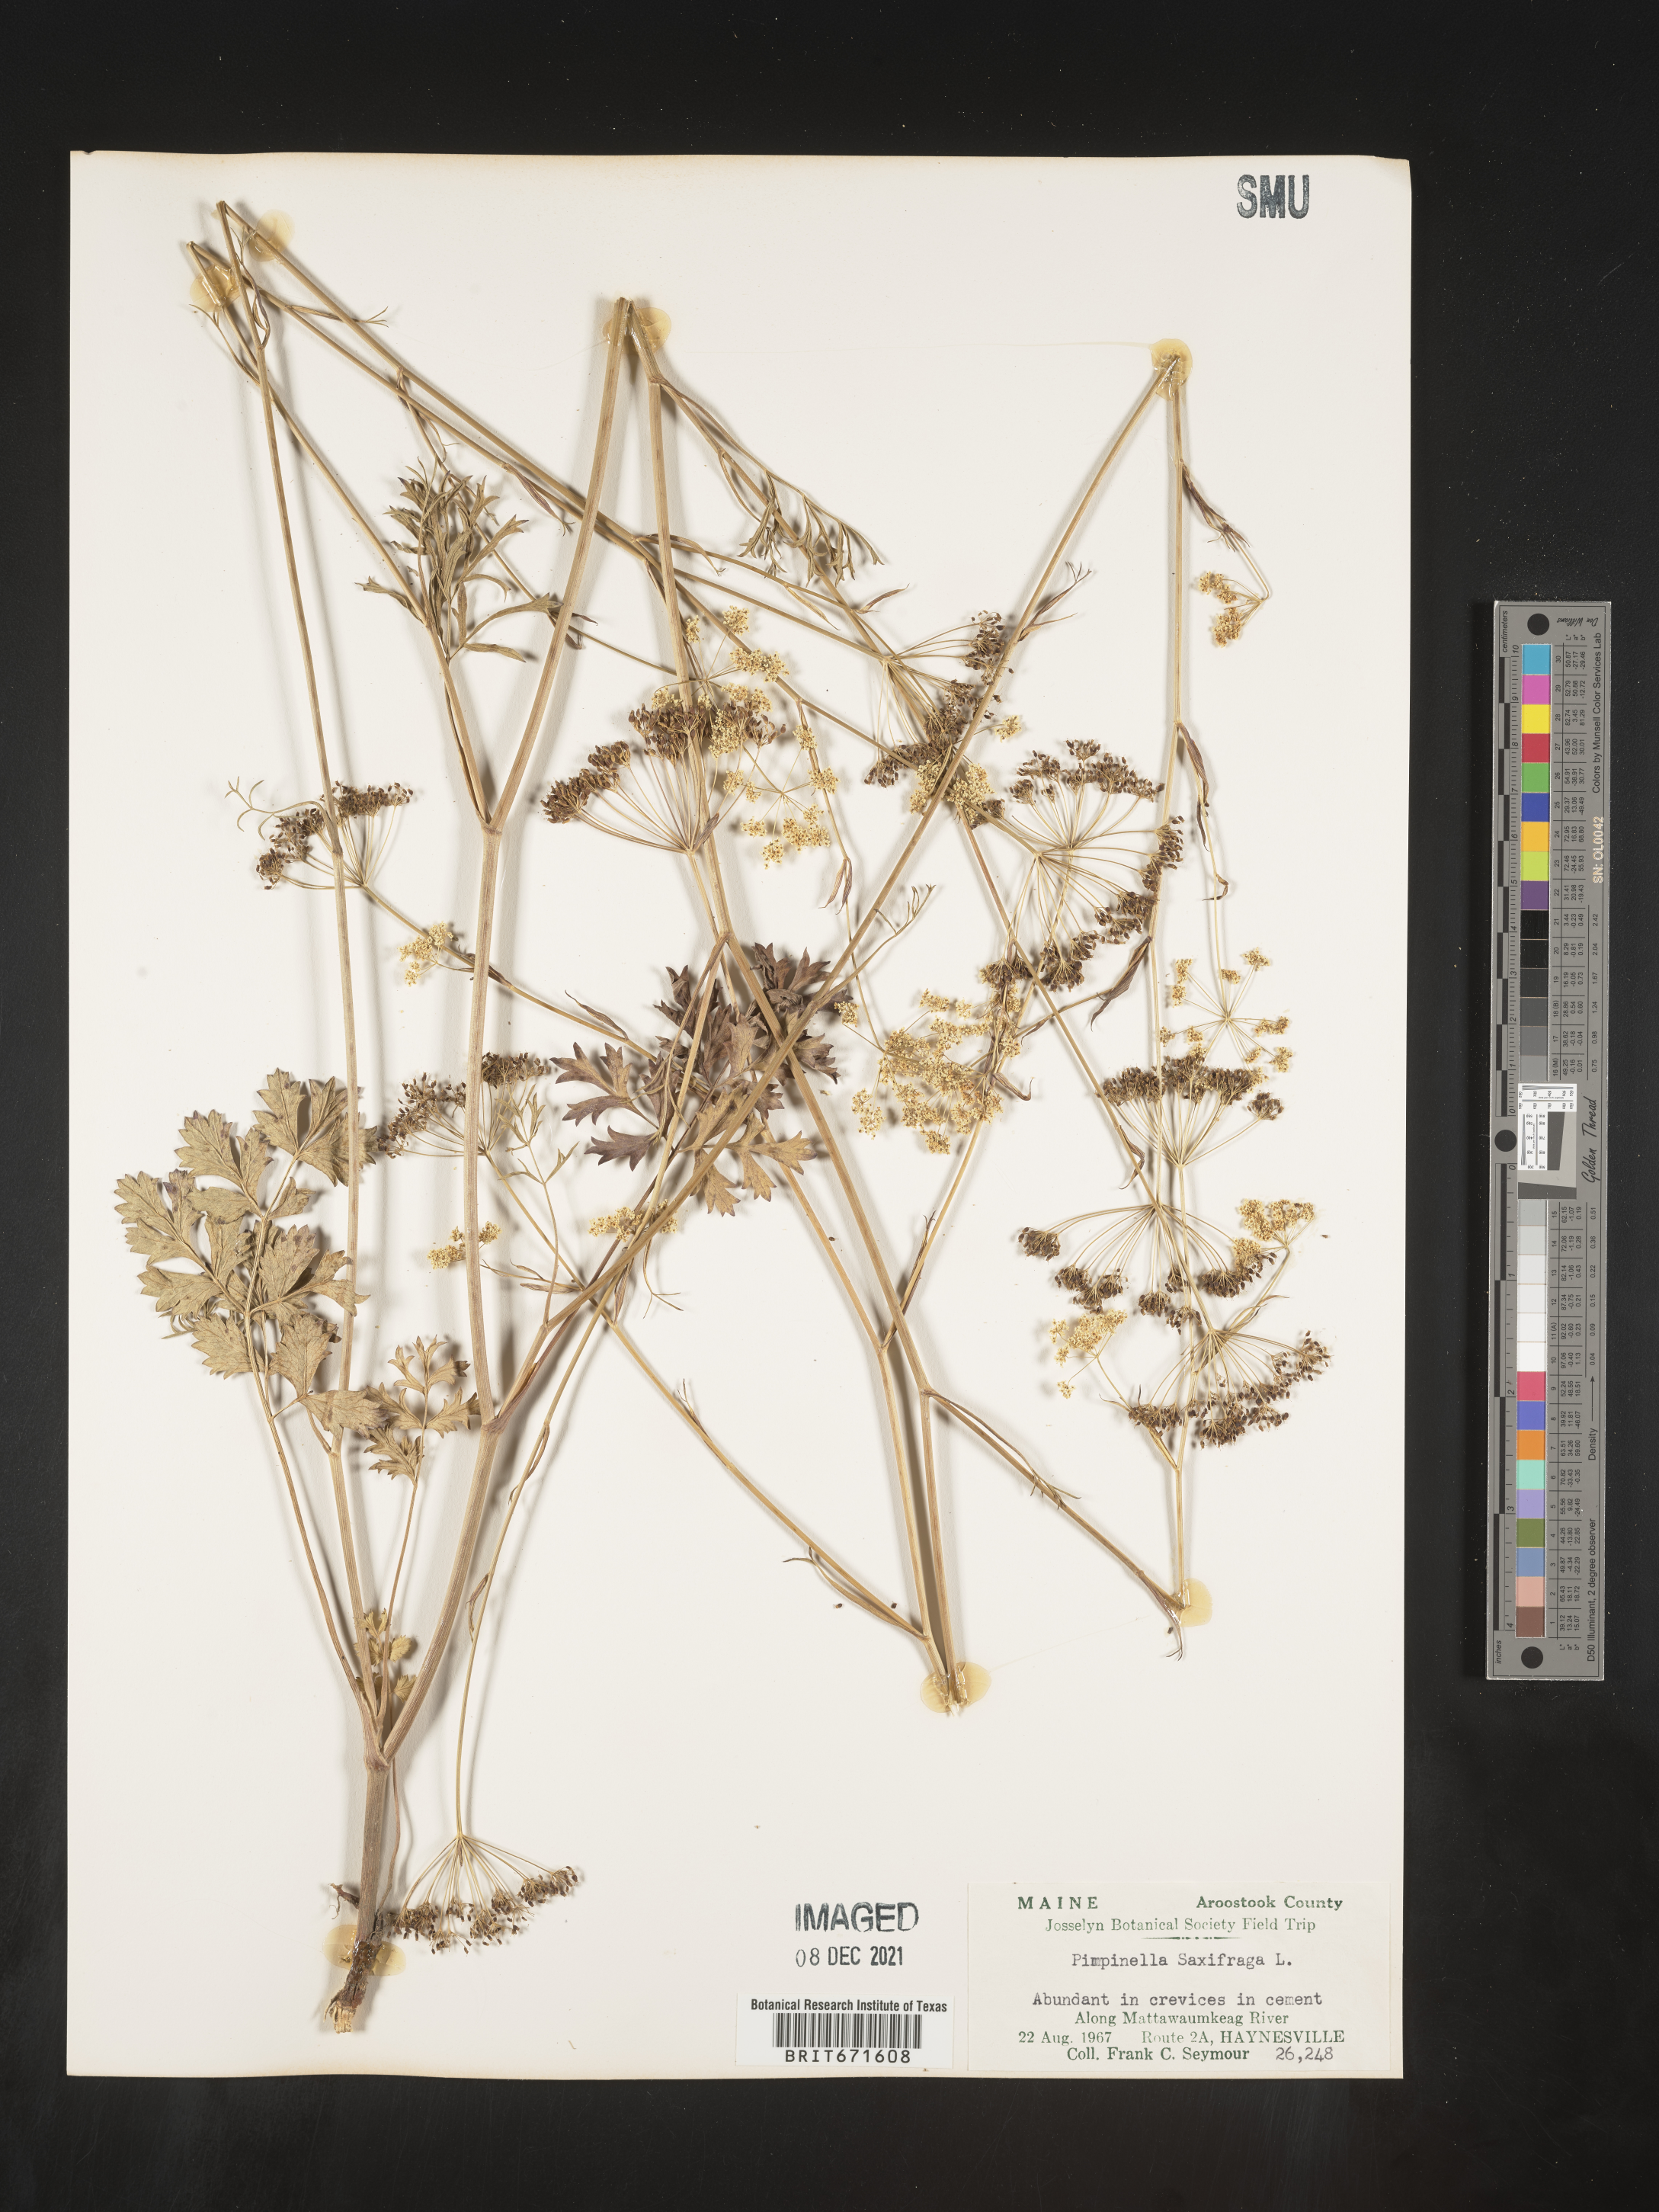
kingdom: Plantae
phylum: Tracheophyta
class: Magnoliopsida
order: Apiales
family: Apiaceae
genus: Pimpinella
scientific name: Pimpinella
